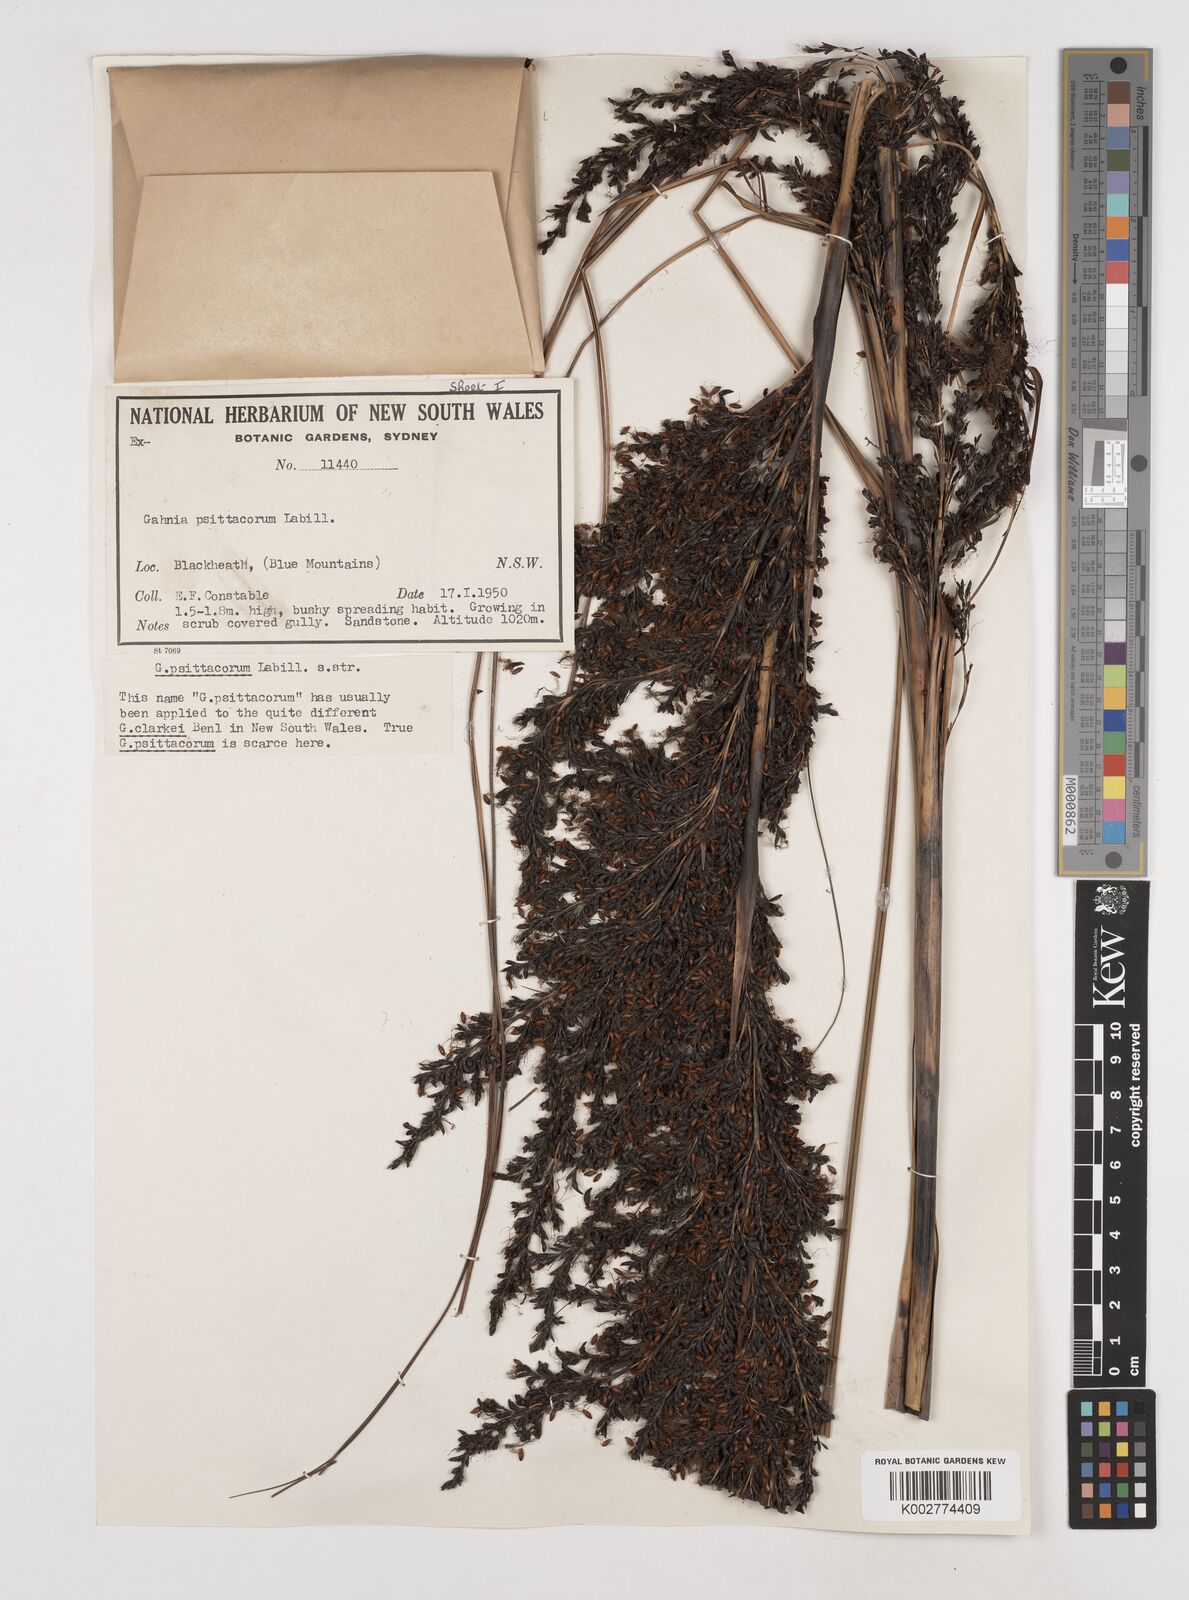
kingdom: Plantae
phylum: Tracheophyta
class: Liliopsida
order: Poales
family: Cyperaceae
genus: Gahnia
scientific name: Gahnia grandis
